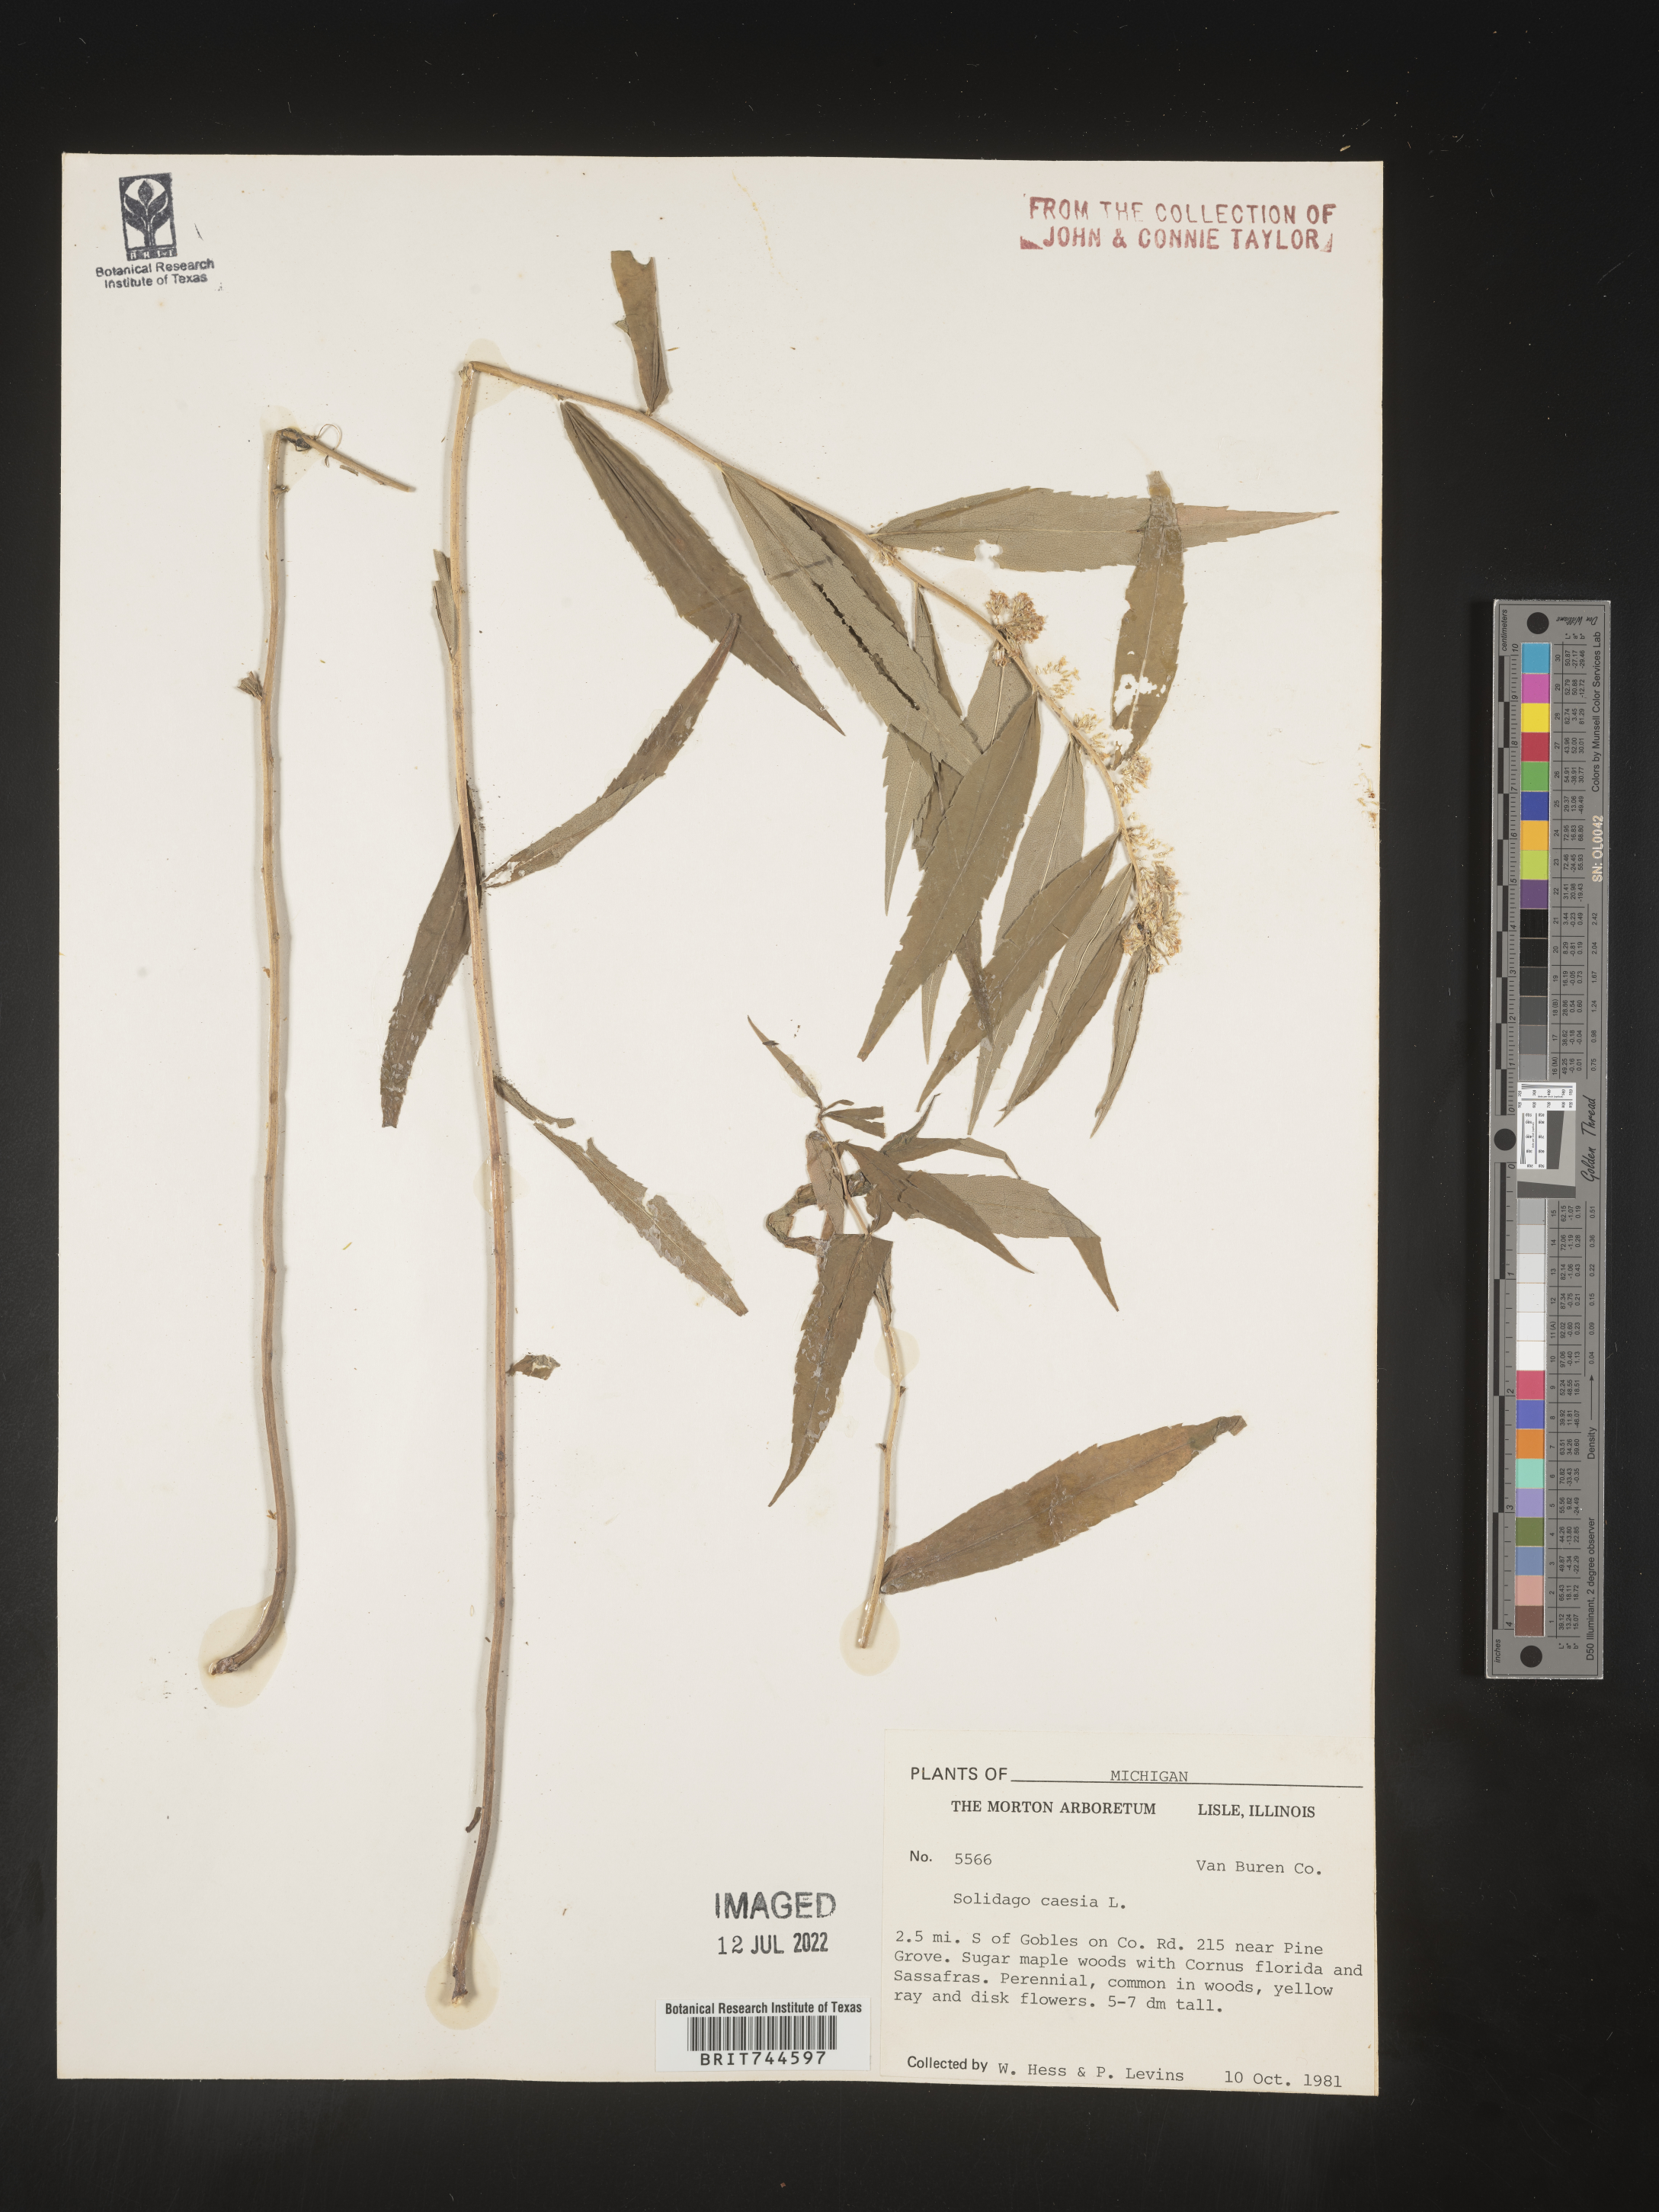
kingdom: Plantae
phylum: Tracheophyta
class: Magnoliopsida
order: Asterales
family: Asteraceae
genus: Solidago
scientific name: Solidago caesia
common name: Woodland goldenrod
